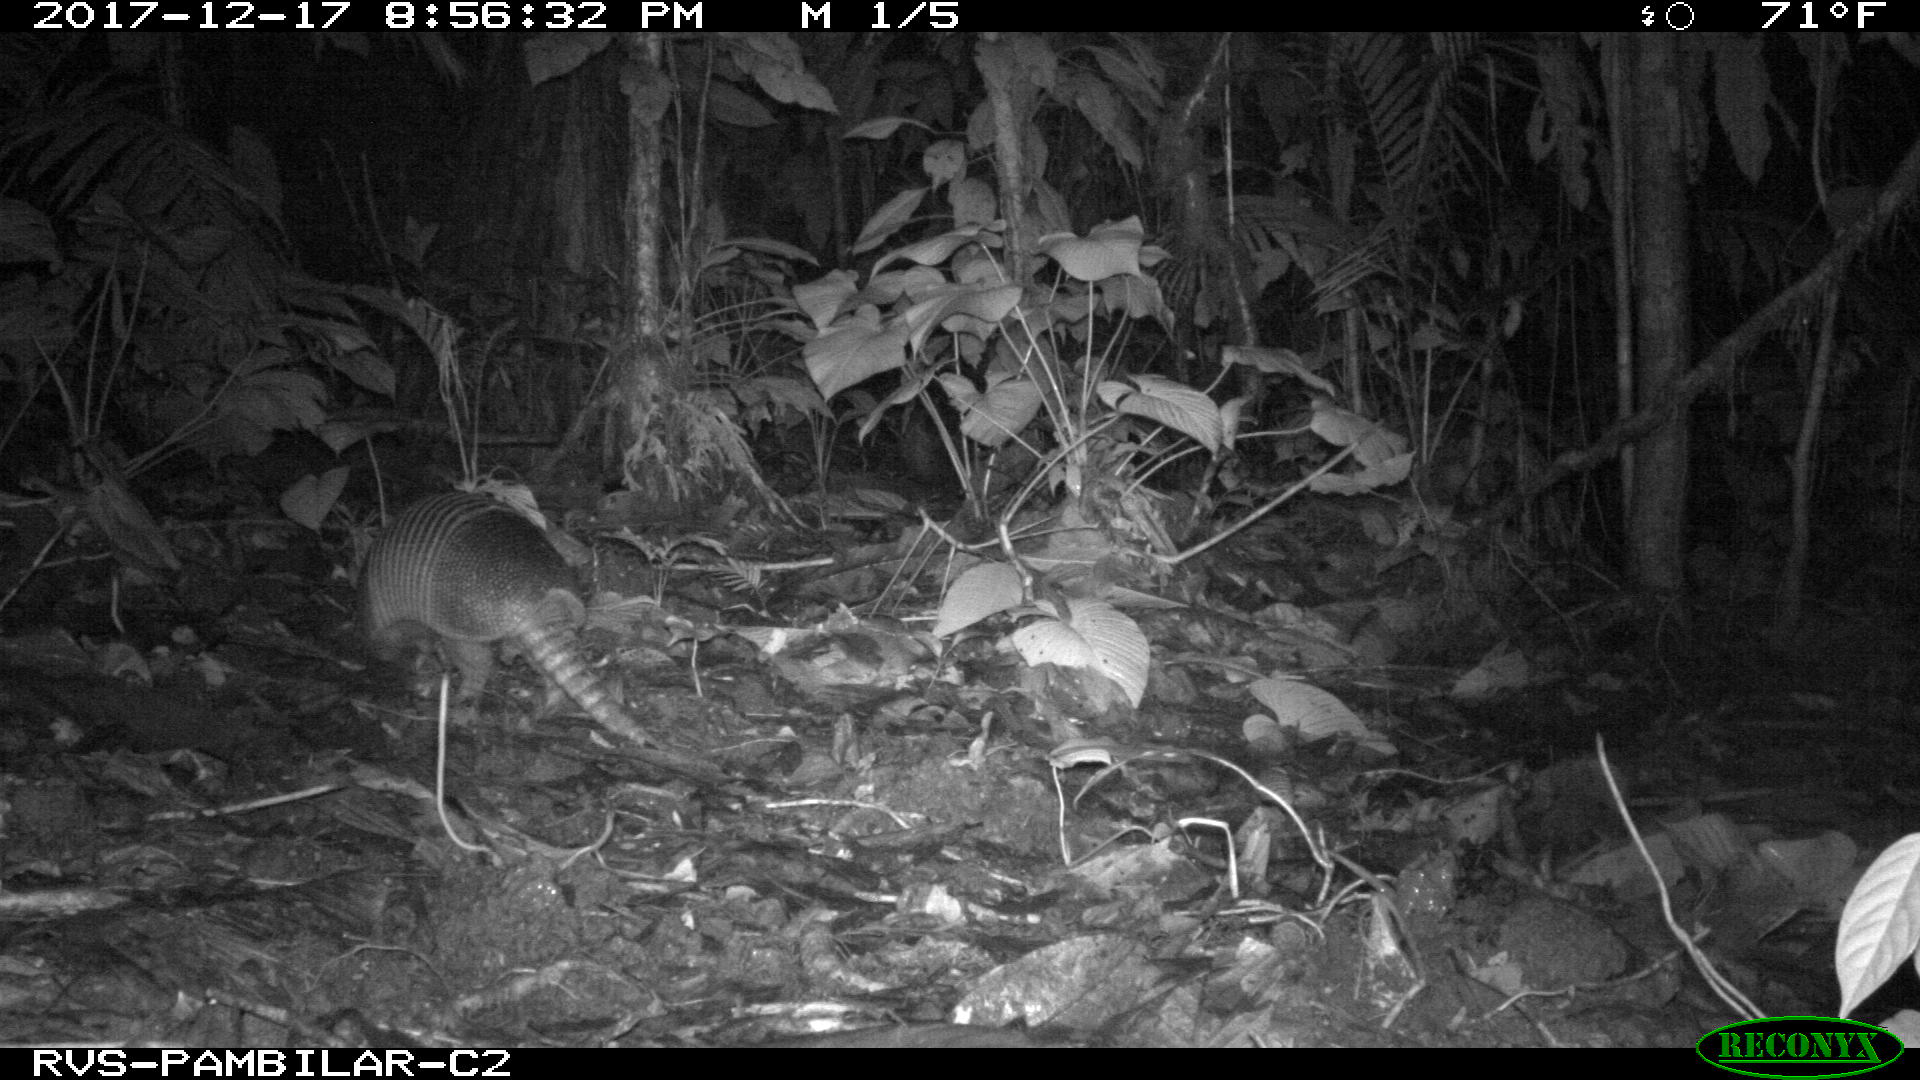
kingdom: Animalia
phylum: Chordata
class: Mammalia
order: Cingulata
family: Dasypodidae
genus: Dasypus
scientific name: Dasypus novemcinctus
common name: Nine-banded armadillo
